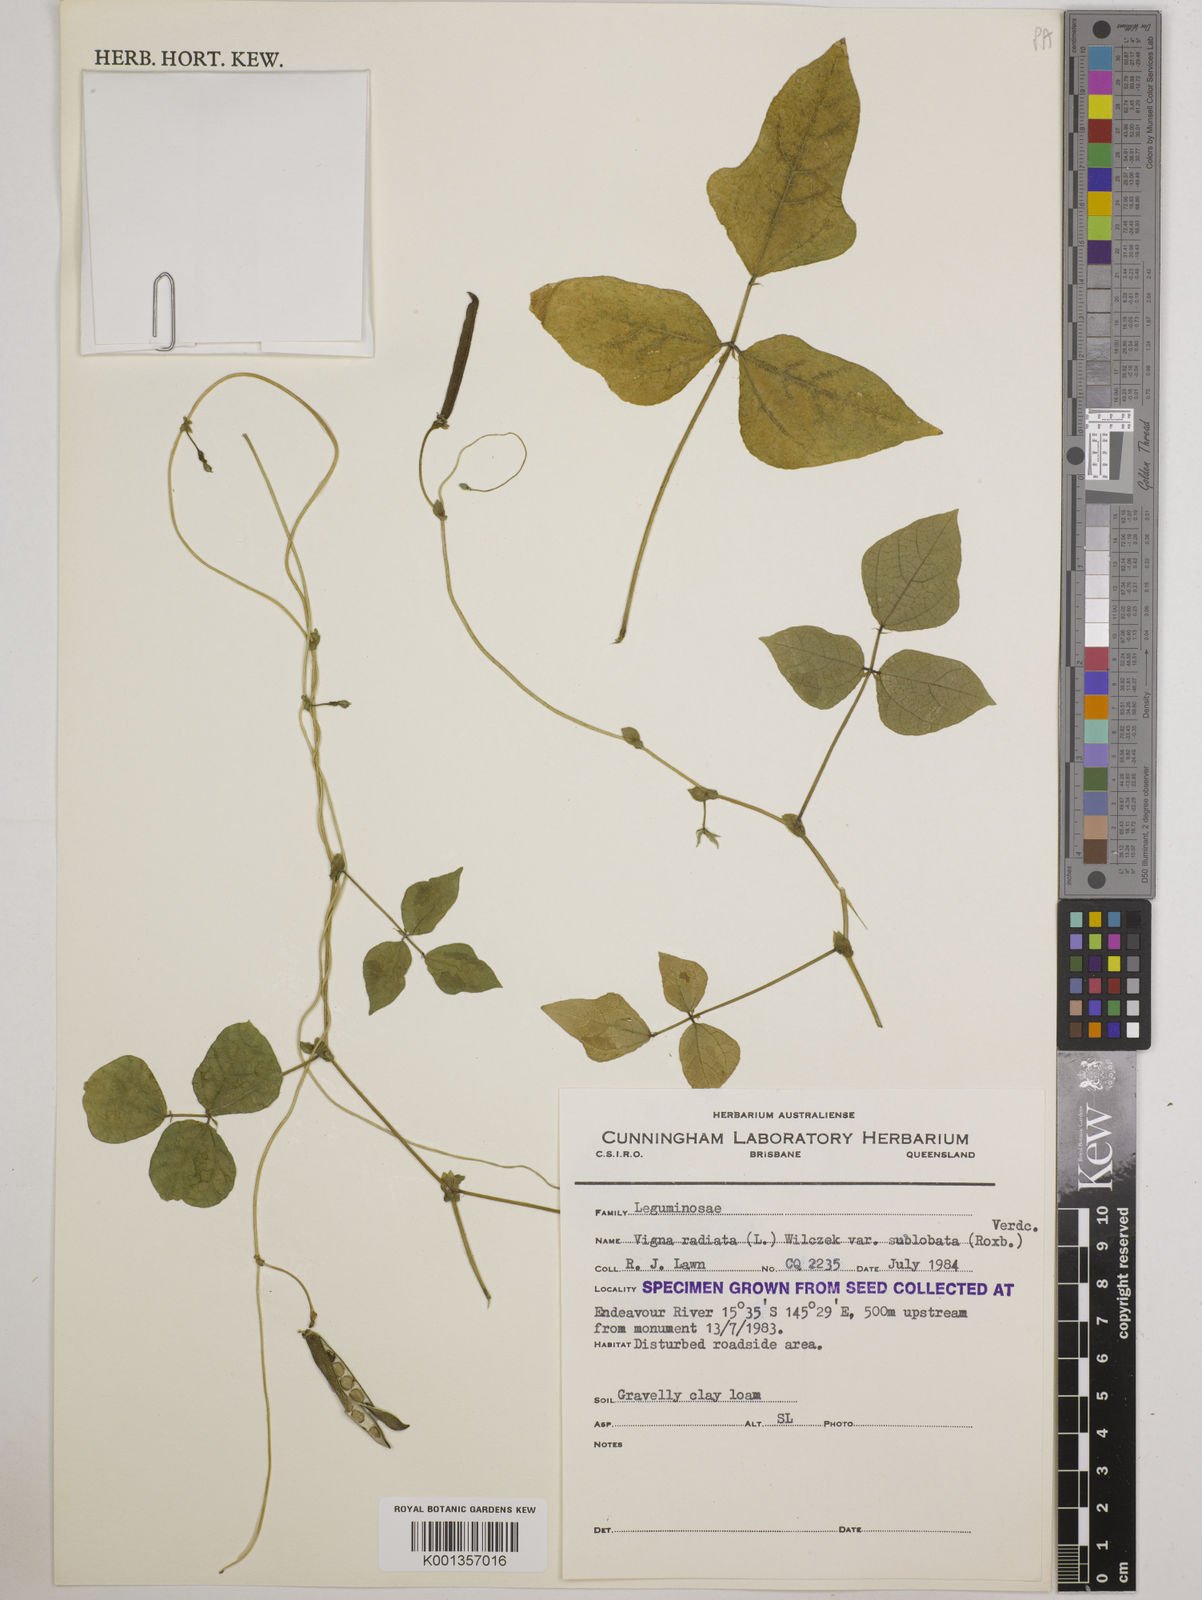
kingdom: Plantae
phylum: Tracheophyta
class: Magnoliopsida
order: Fabales
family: Fabaceae
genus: Vigna
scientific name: Vigna radiata
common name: Mung-bean
